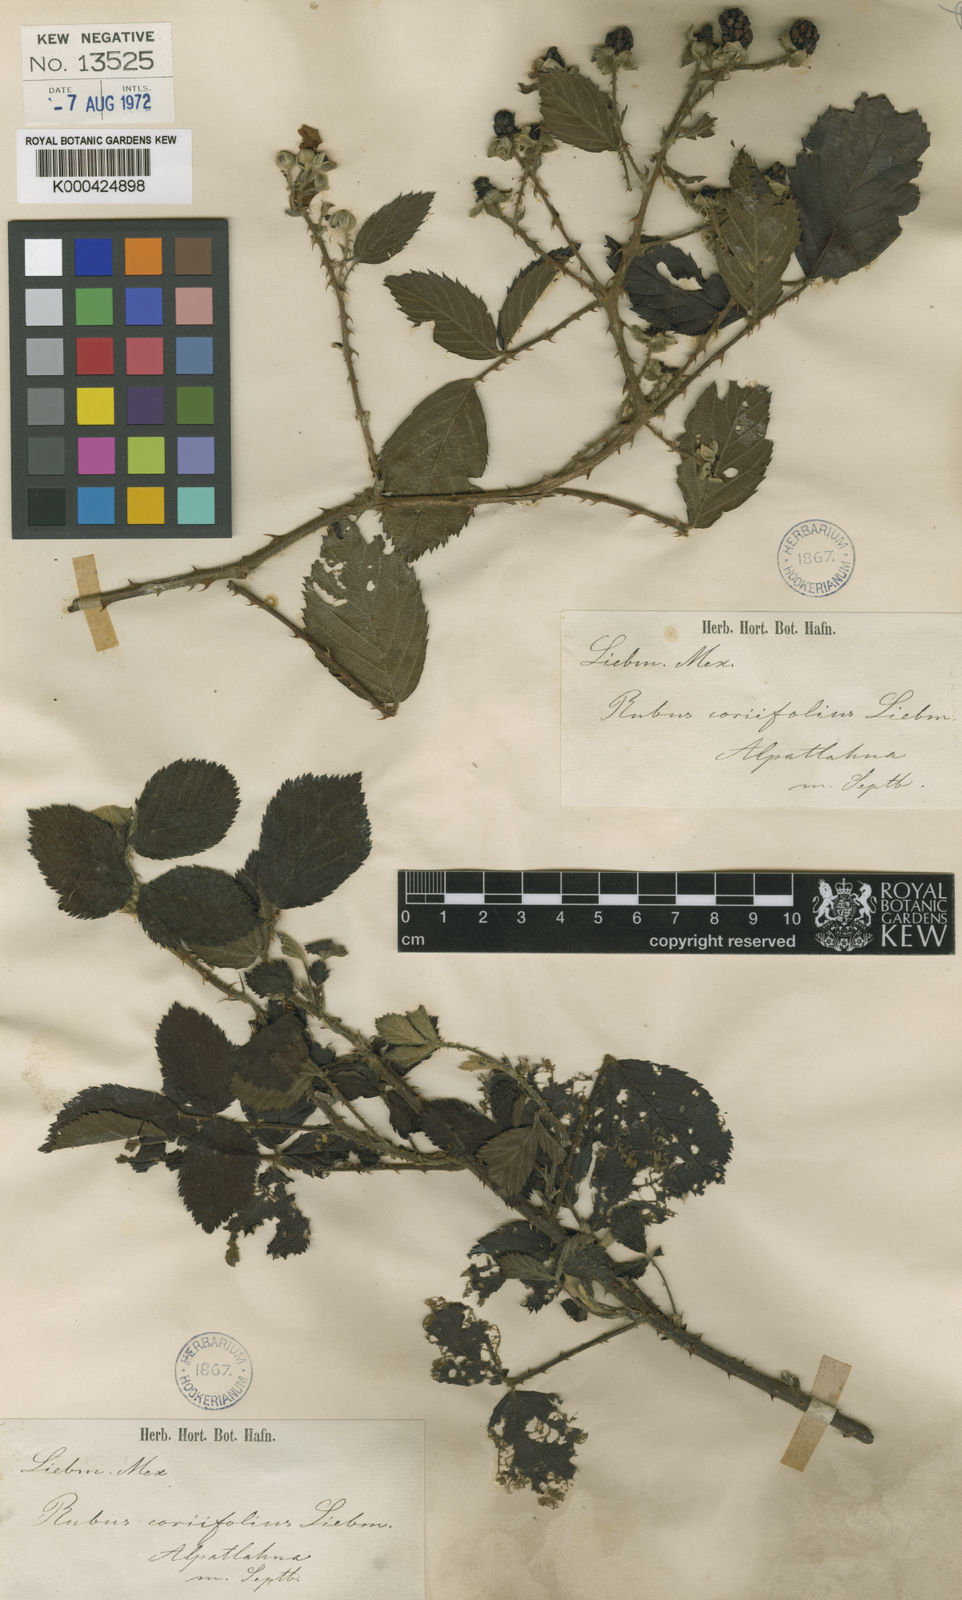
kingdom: Plantae
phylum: Tracheophyta
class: Magnoliopsida
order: Rosales
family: Rosaceae
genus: Rubus
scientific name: Rubus coriifolius
